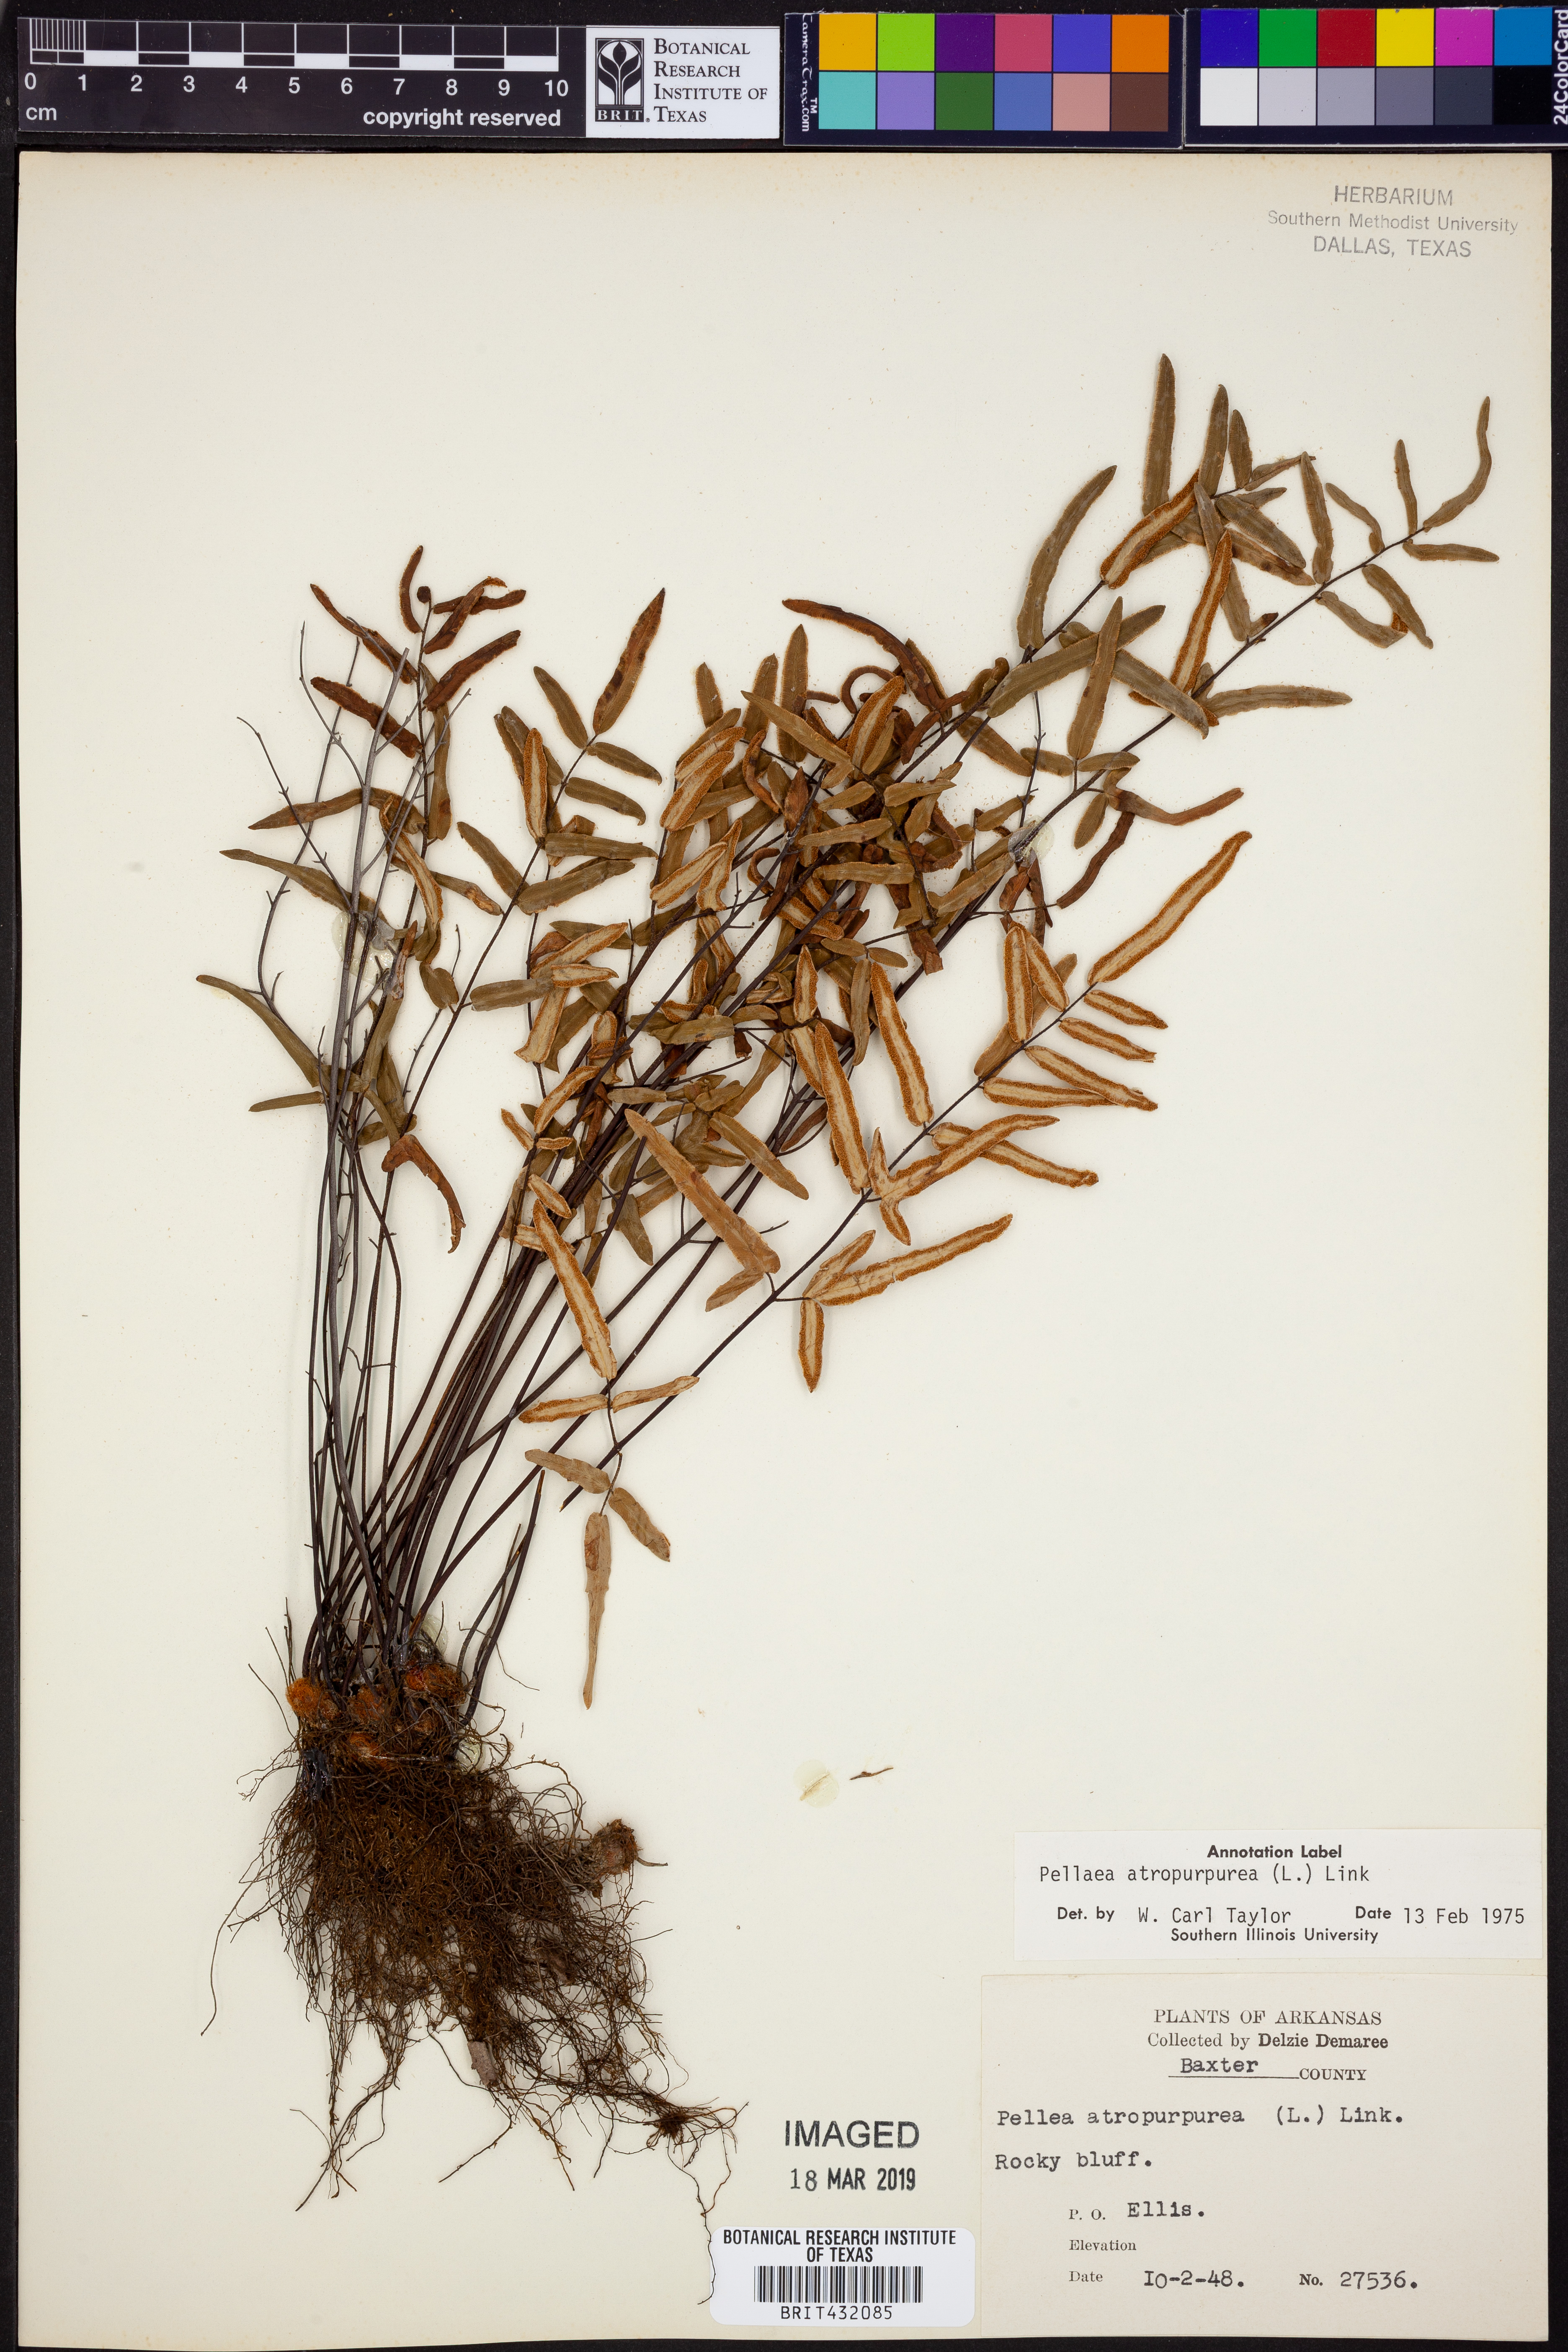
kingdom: Plantae
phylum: Tracheophyta
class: Polypodiopsida
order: Polypodiales
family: Pteridaceae
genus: Pellaea
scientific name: Pellaea atropurpurea
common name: Hairy cliffbrake
